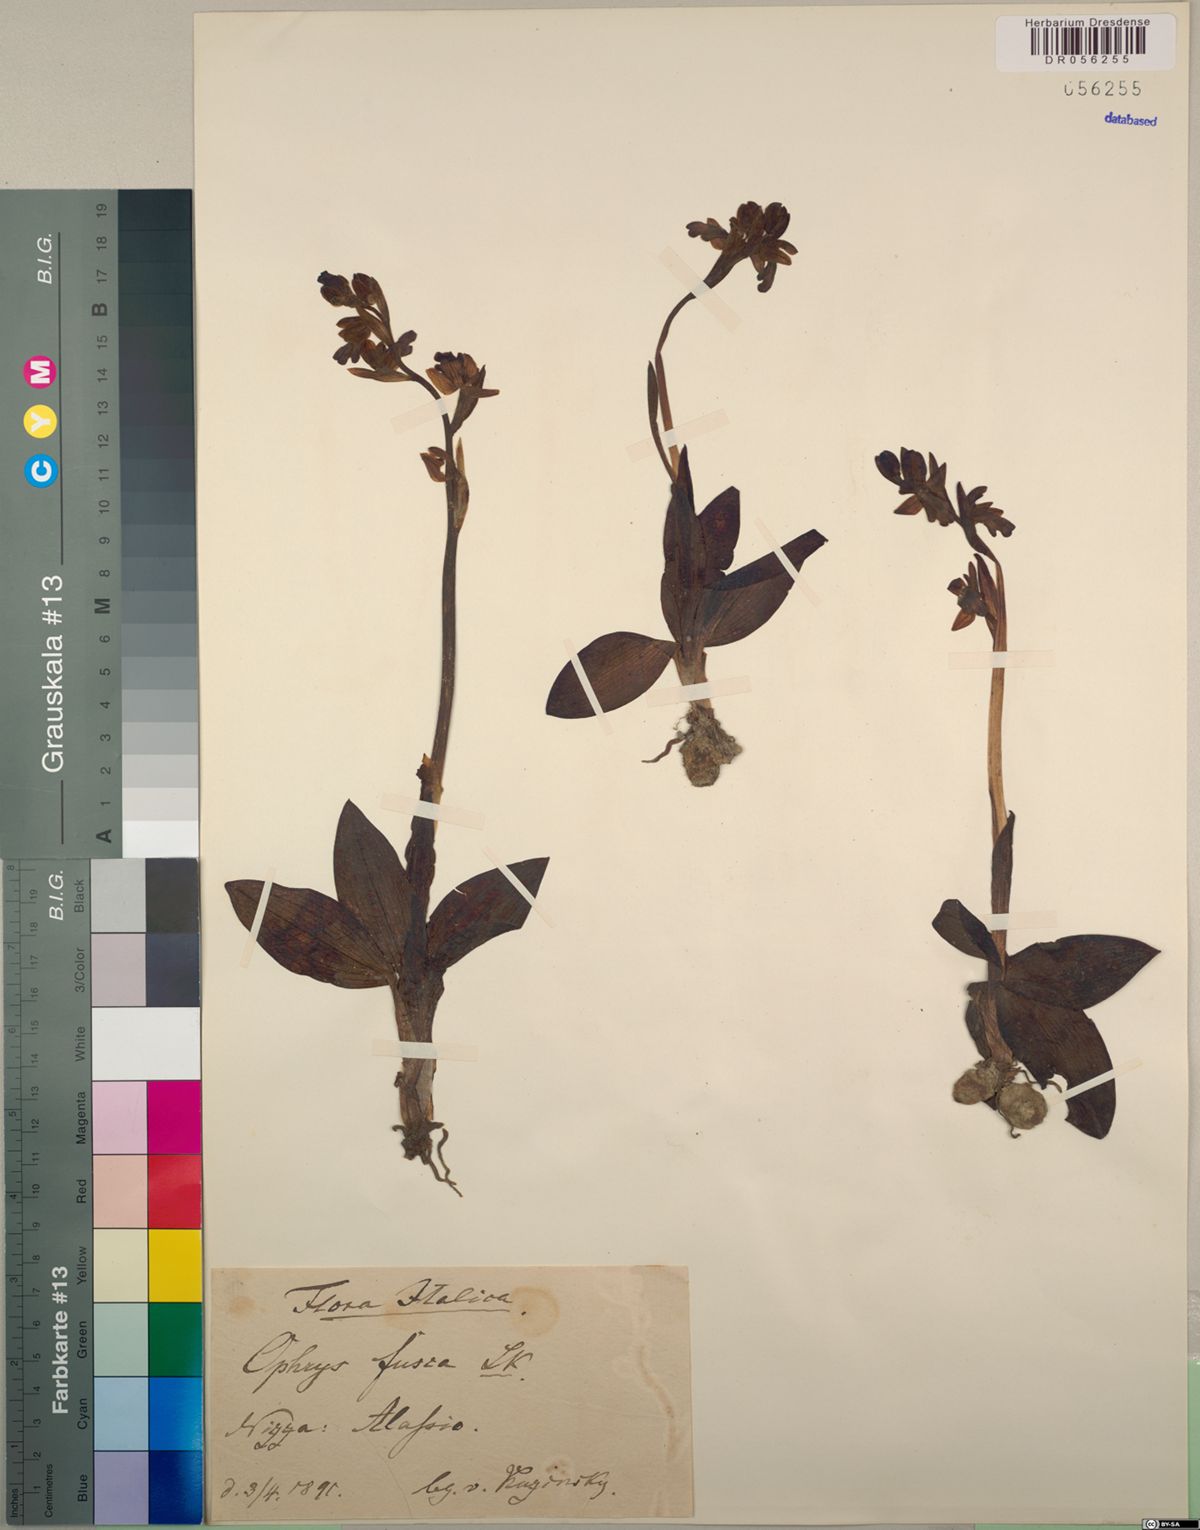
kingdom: Plantae
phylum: Tracheophyta
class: Liliopsida
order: Asparagales
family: Orchidaceae
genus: Ophrys
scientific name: Ophrys fusca
